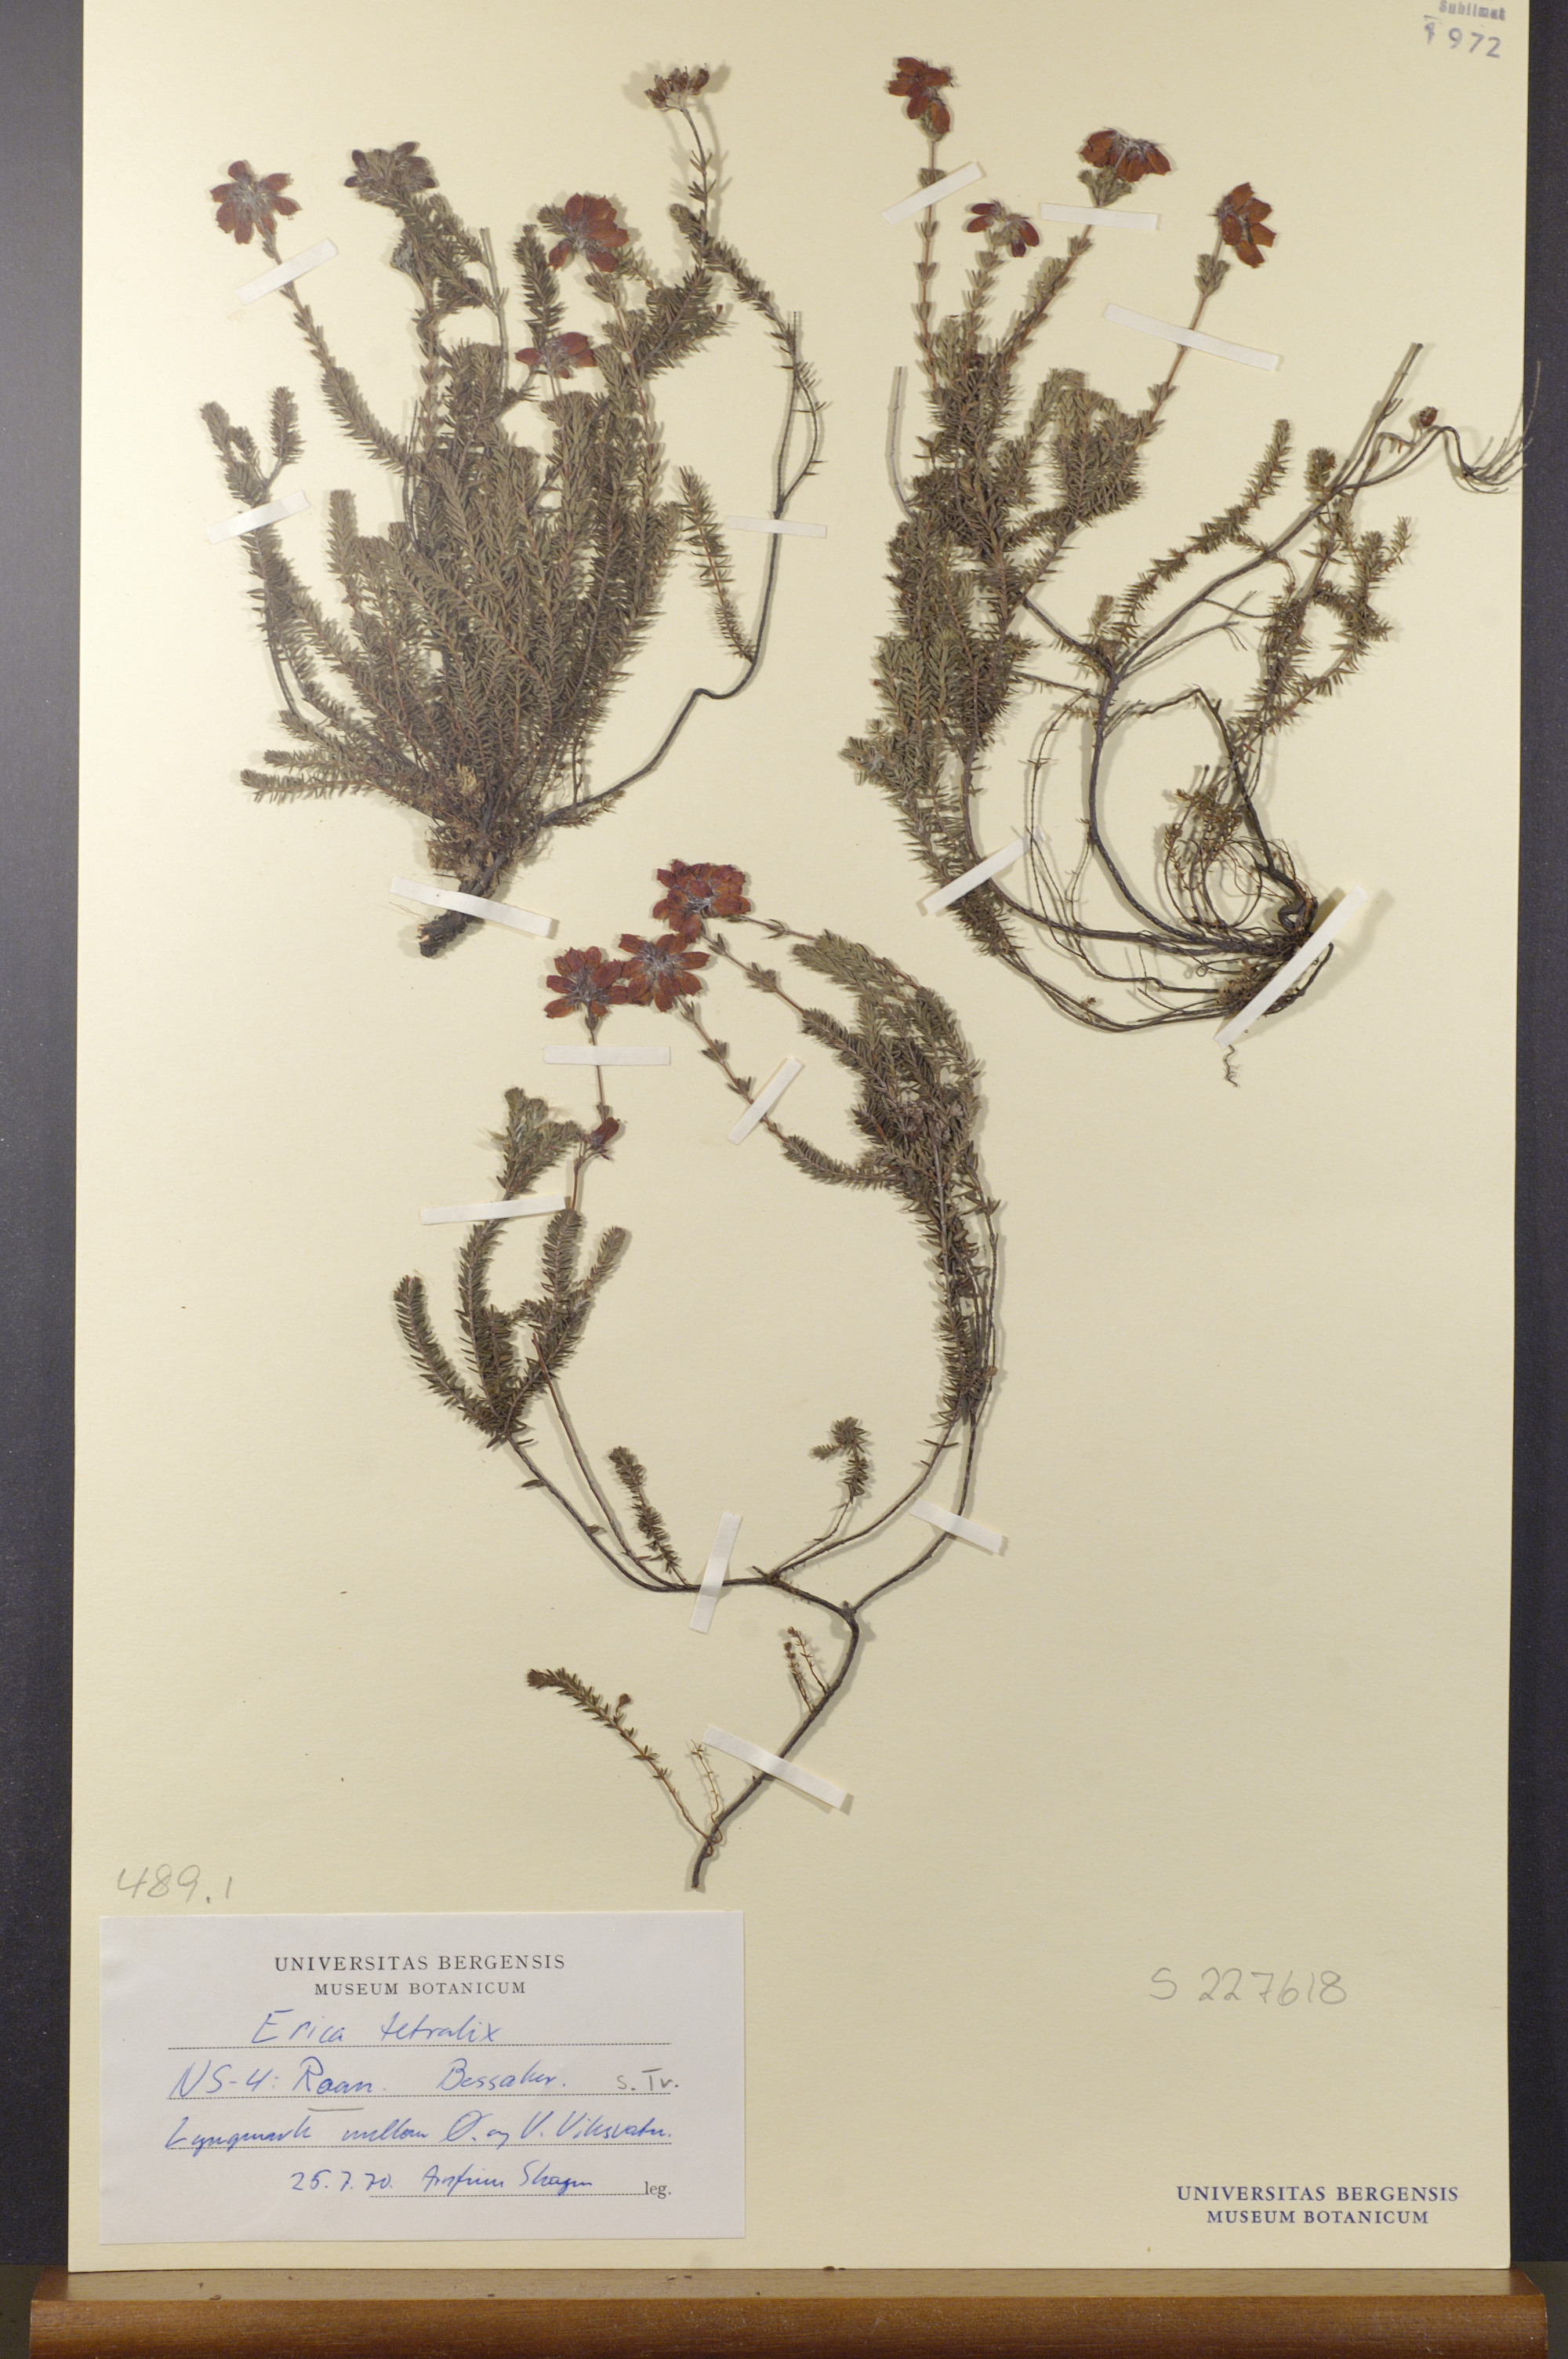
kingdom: Plantae
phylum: Tracheophyta
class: Magnoliopsida
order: Ericales
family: Ericaceae
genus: Erica
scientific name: Erica tetralix
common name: Cross-leaved heath
